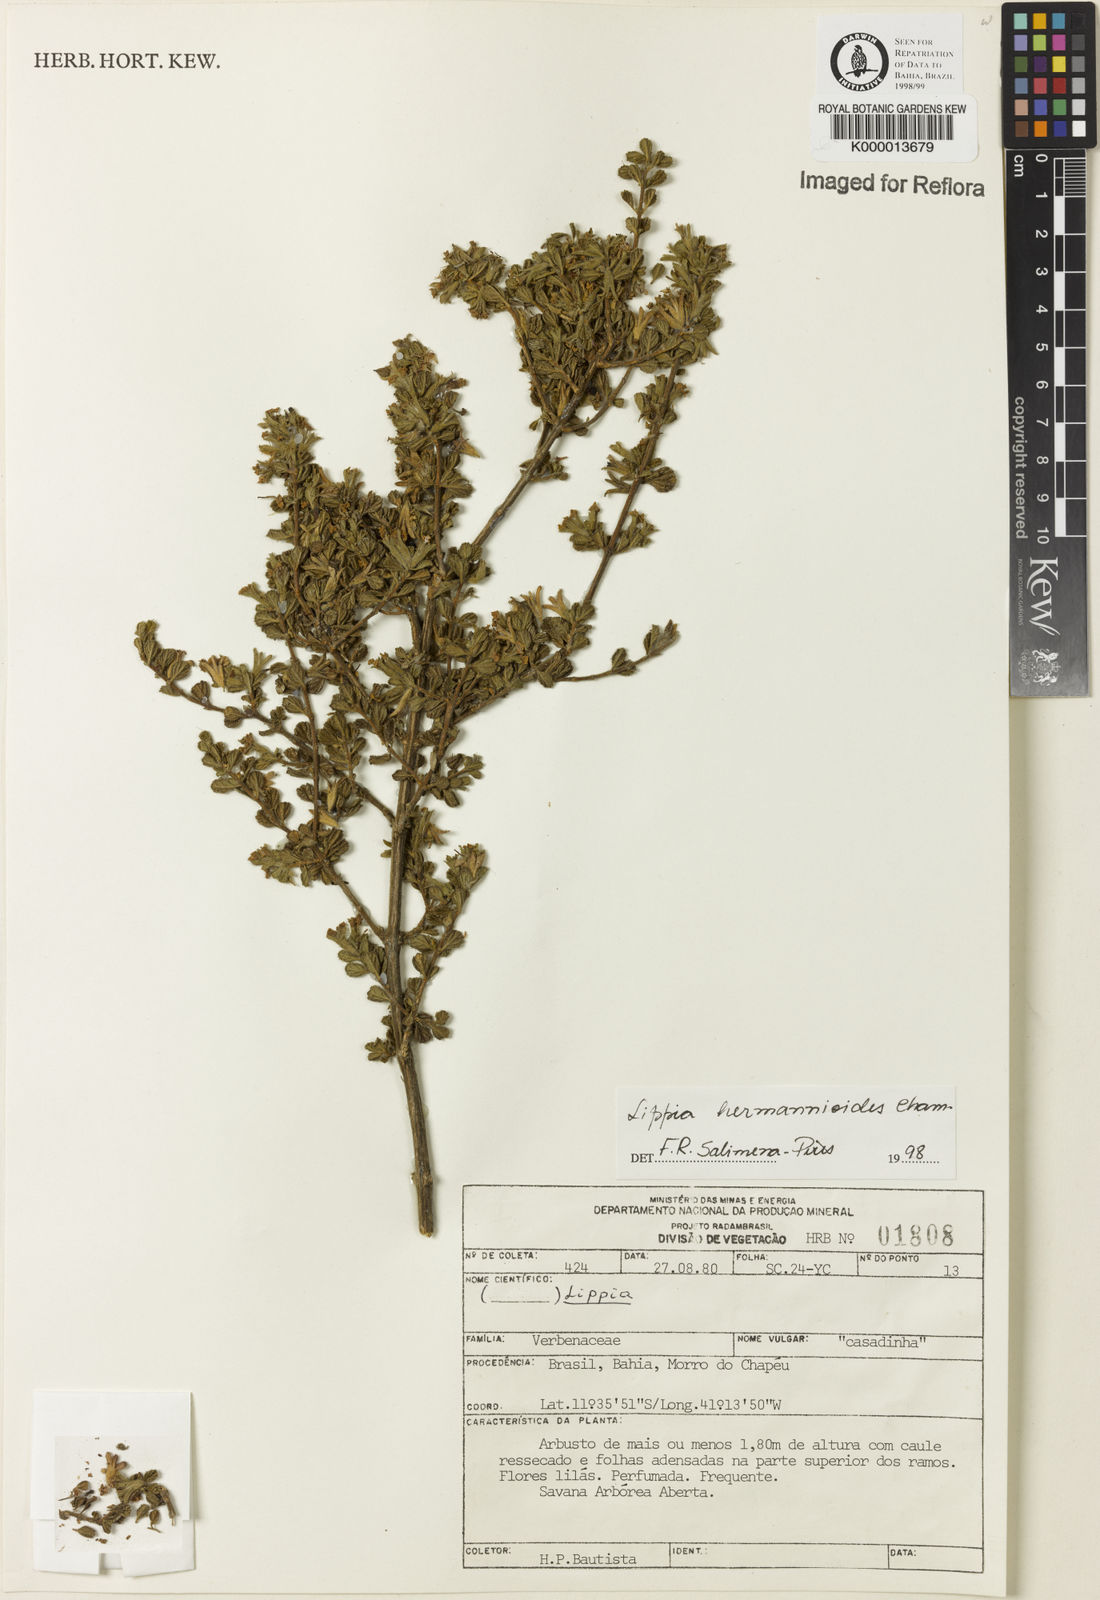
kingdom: Plantae
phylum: Tracheophyta
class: Magnoliopsida
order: Lamiales
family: Verbenaceae
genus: Lippia
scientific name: Lippia hermannioides
